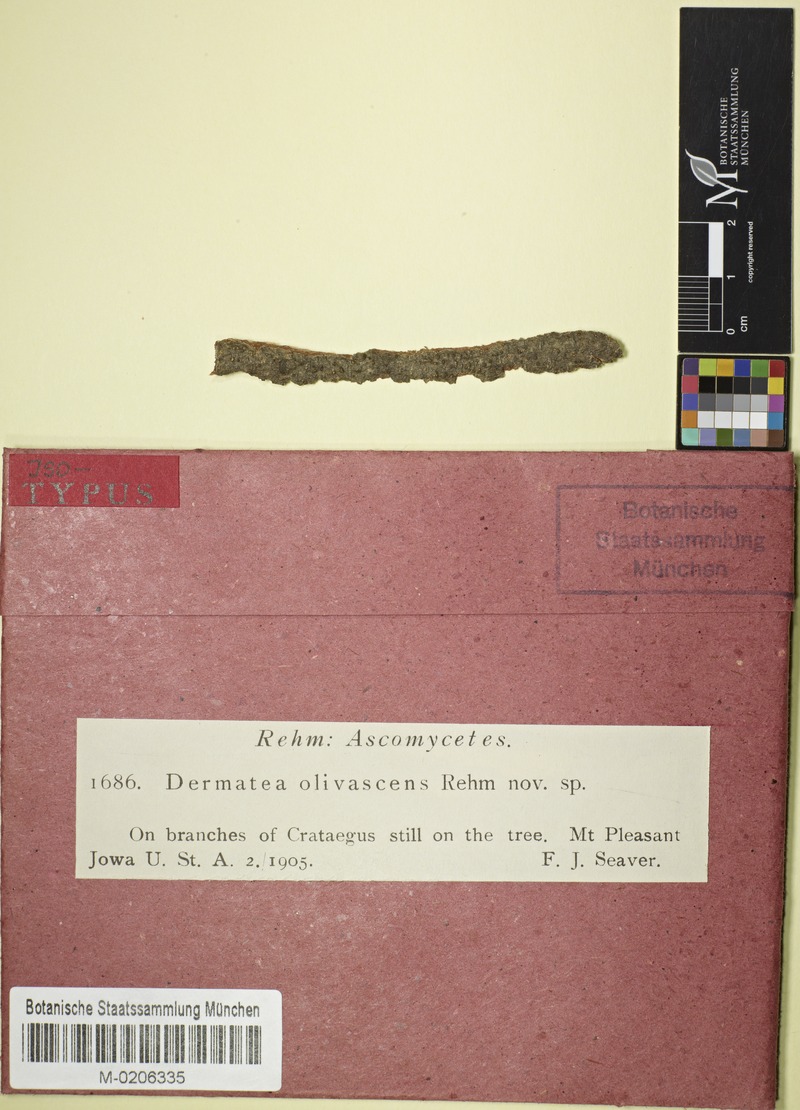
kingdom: Fungi
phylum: Ascomycota
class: Leotiomycetes
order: Helotiales
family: Dermateaceae
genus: Pezicula
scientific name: Pezicula olivascens
